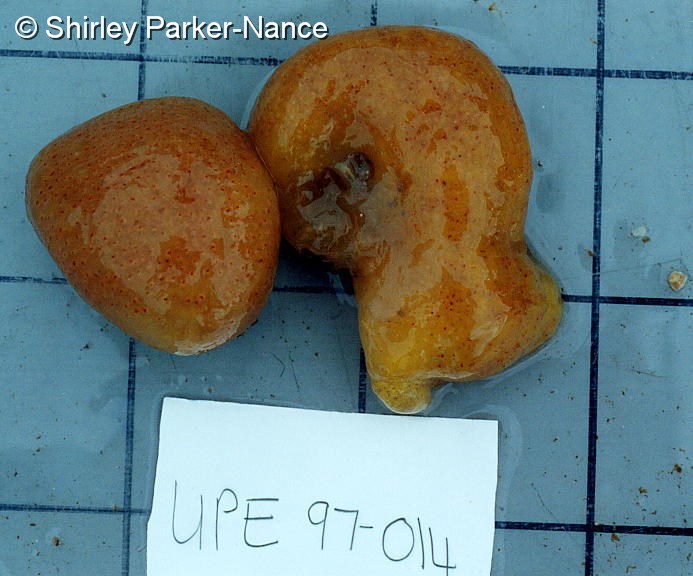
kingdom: Animalia
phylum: Chordata
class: Ascidiacea
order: Aplousobranchia
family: Pseudodistomidae
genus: Pseudodistoma
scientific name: Pseudodistoma
